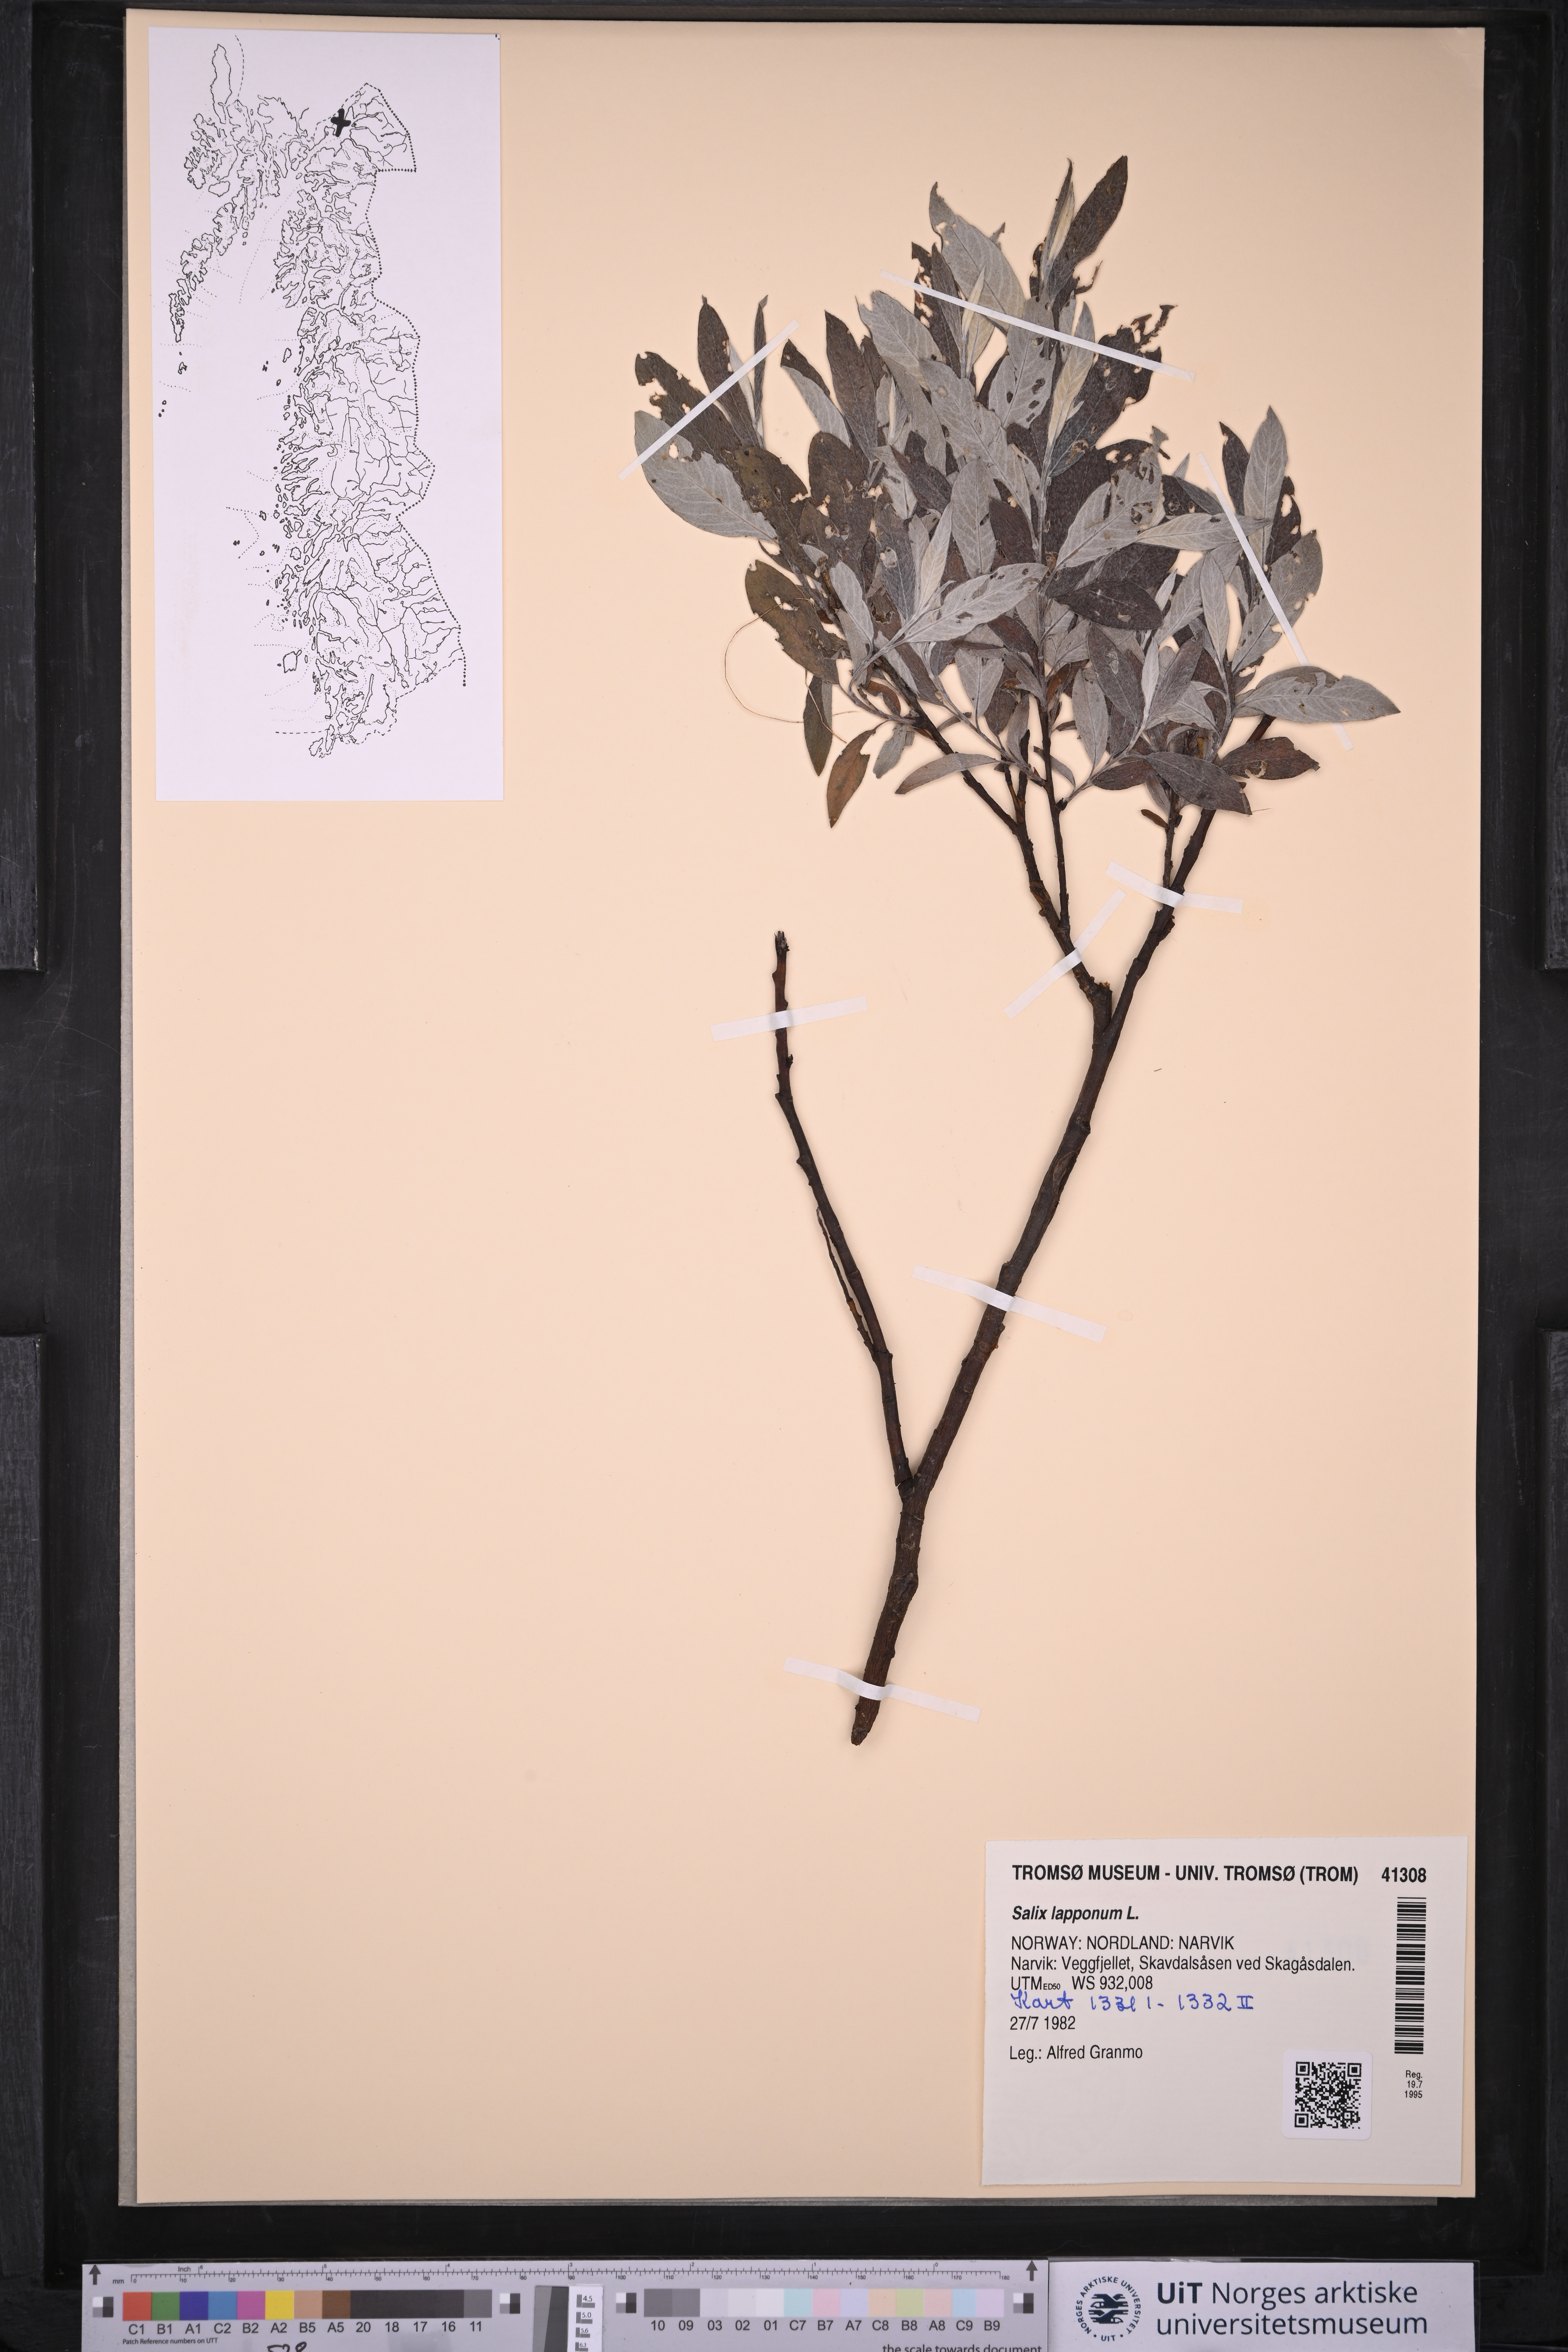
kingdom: Plantae
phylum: Tracheophyta
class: Magnoliopsida
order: Malpighiales
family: Salicaceae
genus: Salix
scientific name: Salix lapponum
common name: Downy willow
